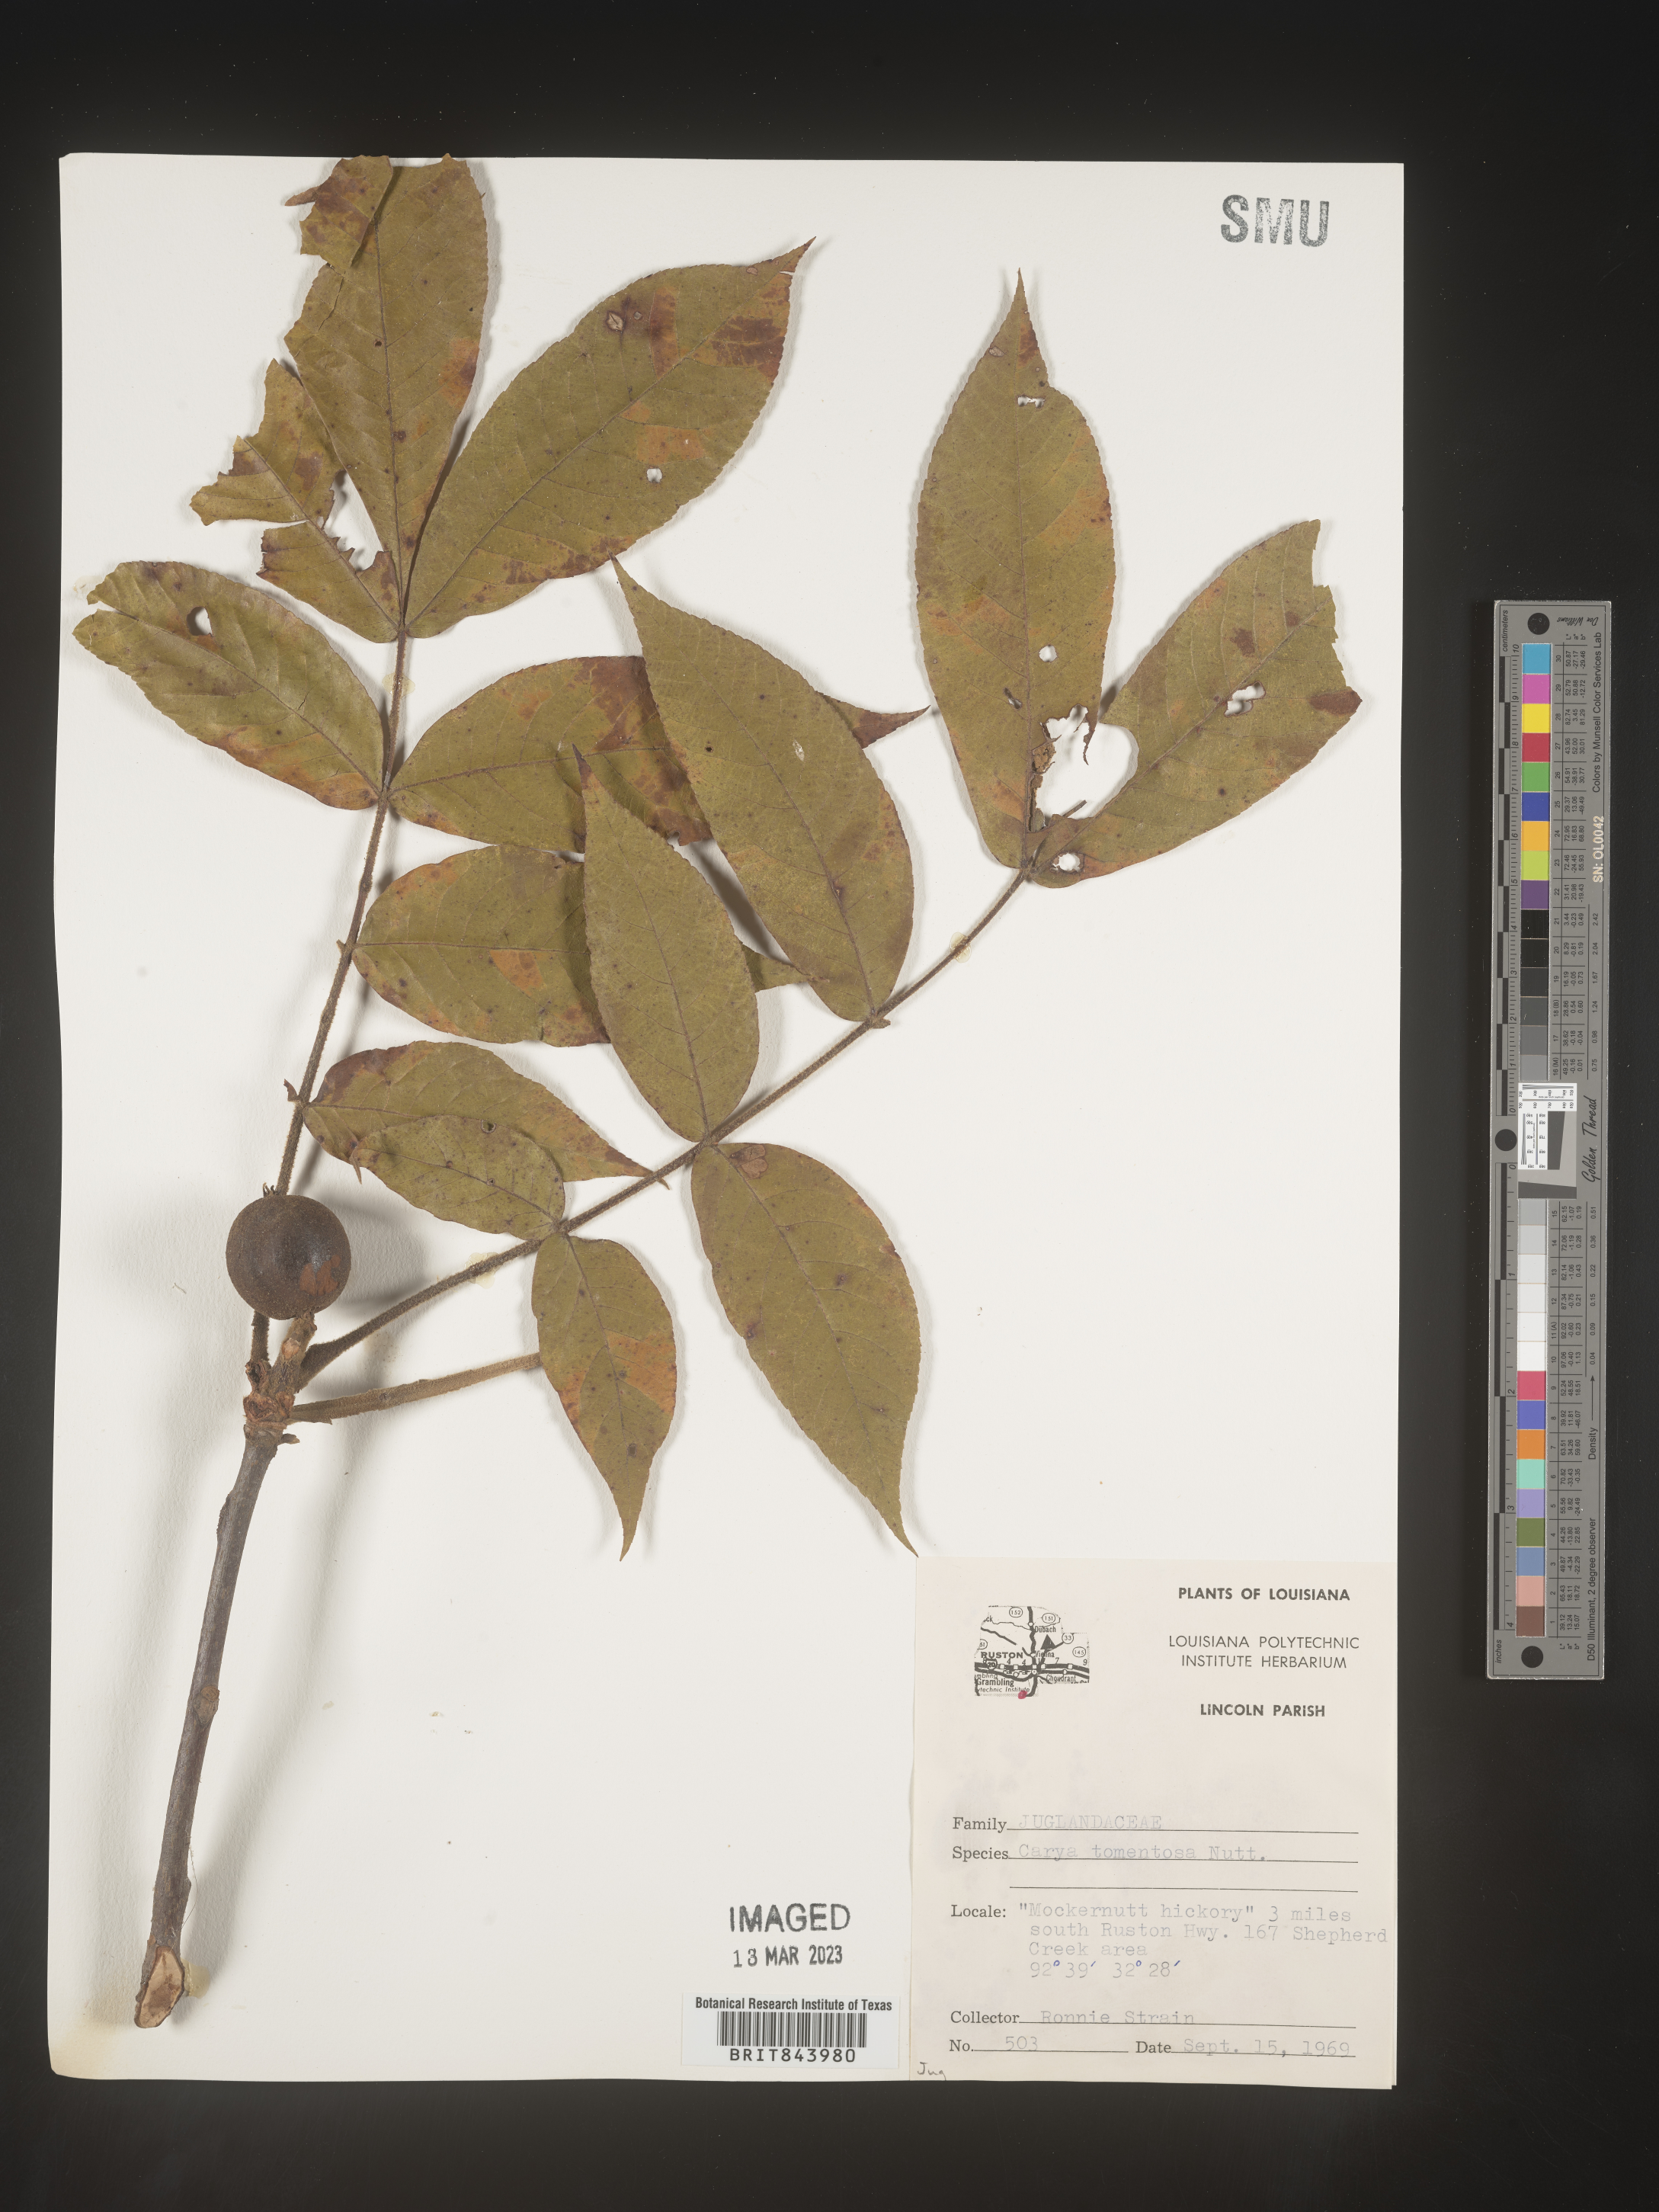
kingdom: Plantae
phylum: Tracheophyta
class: Magnoliopsida
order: Fagales
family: Juglandaceae
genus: Carya
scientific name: Carya alba
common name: Mockernut hickory
